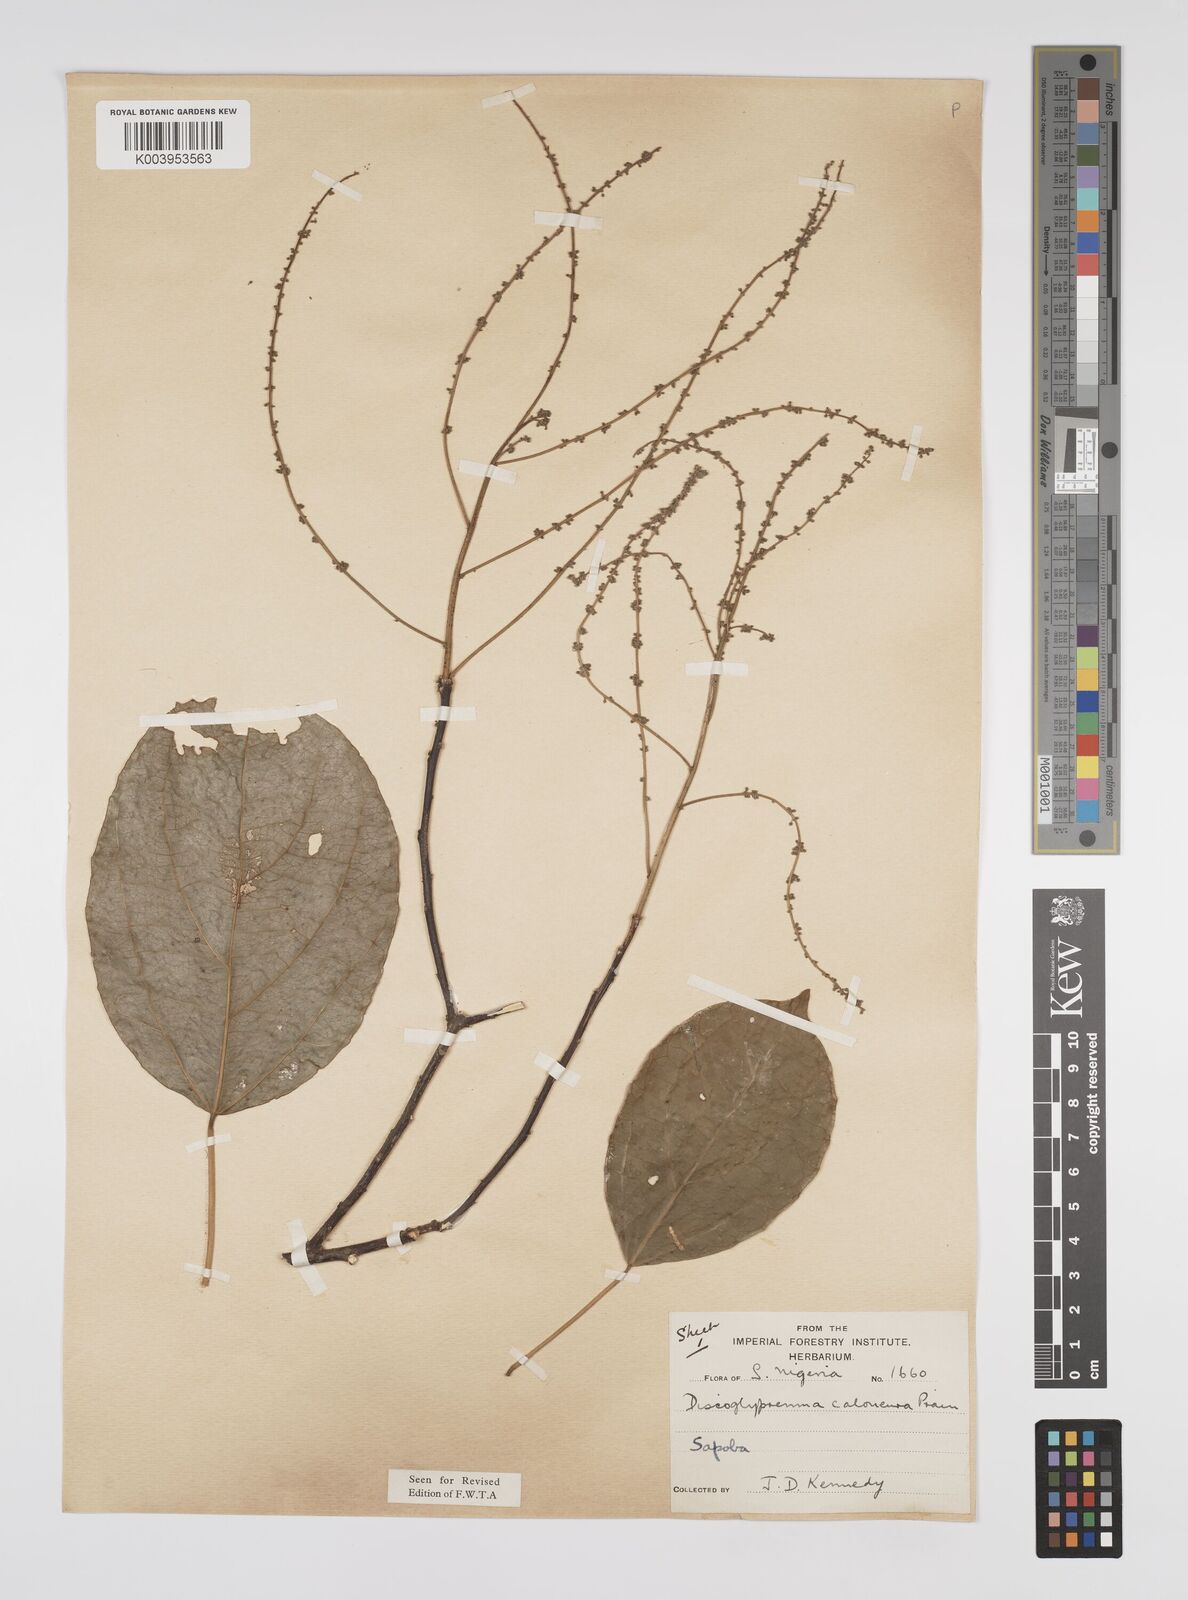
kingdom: Plantae
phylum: Tracheophyta
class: Magnoliopsida
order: Malpighiales
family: Euphorbiaceae
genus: Discoglypremna
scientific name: Discoglypremna caloneura
